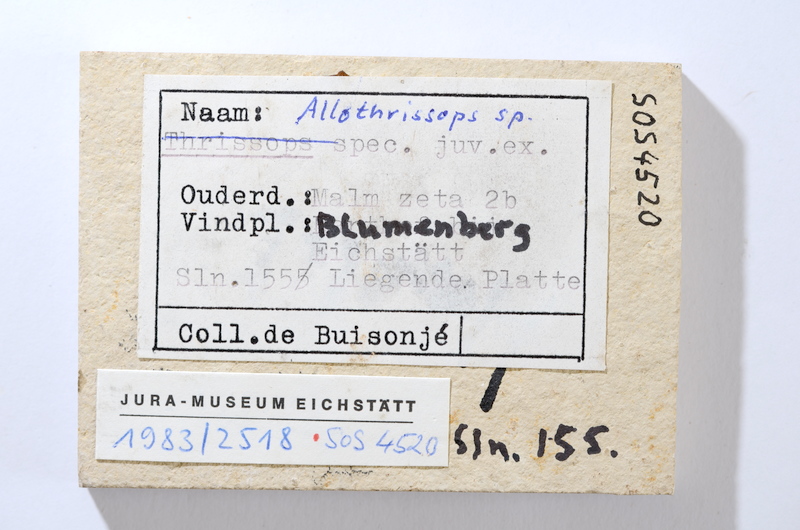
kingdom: Animalia
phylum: Chordata
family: Allothrissopidae
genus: Allothrissops
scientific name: Allothrissops
